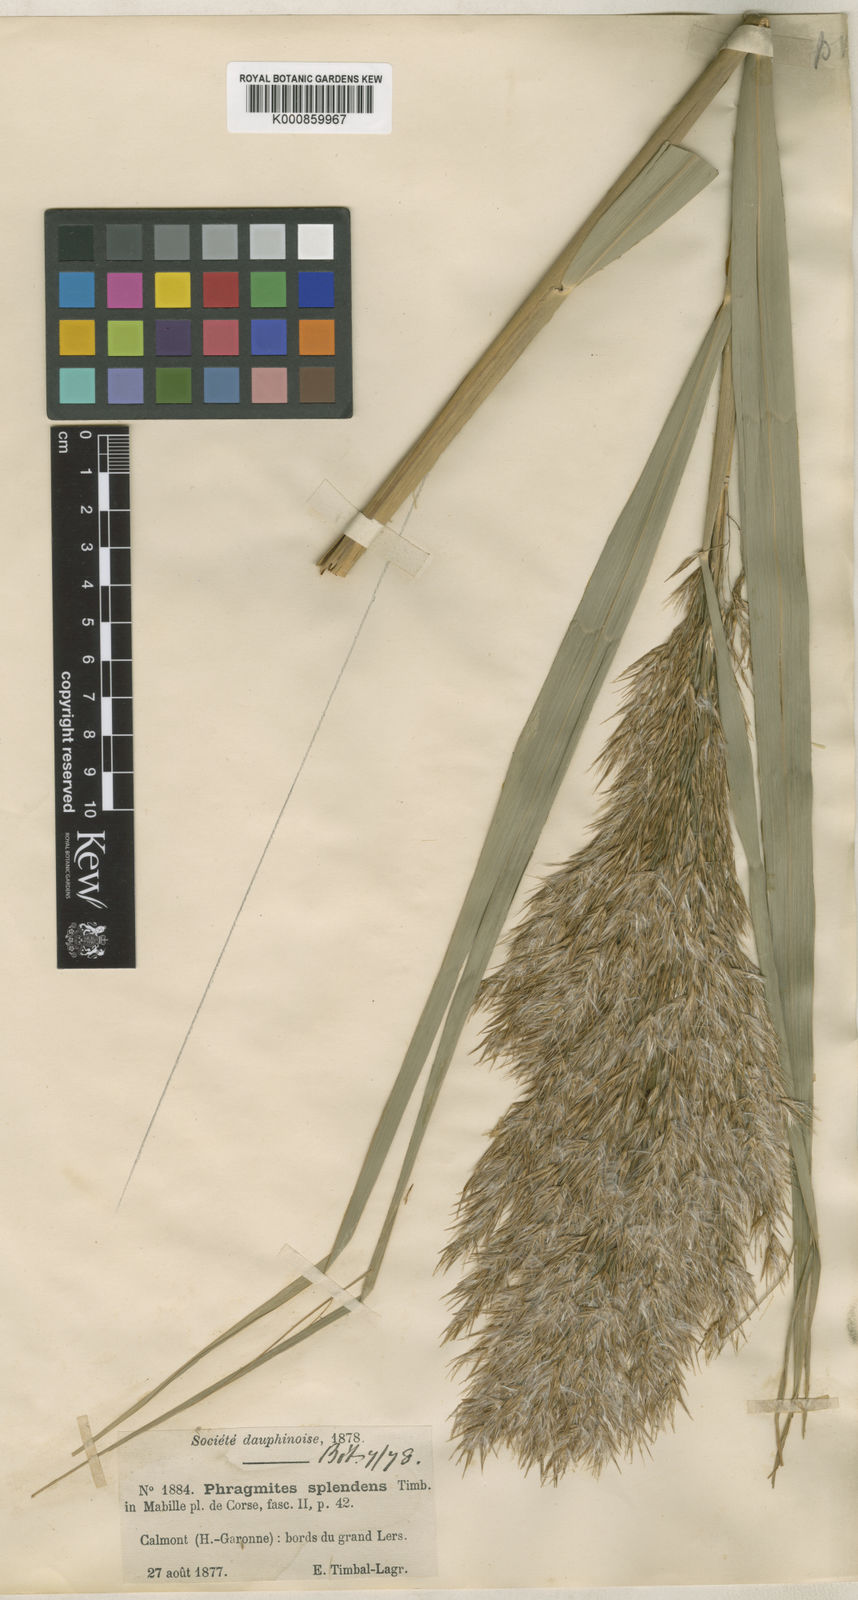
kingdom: Plantae
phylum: Tracheophyta
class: Liliopsida
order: Poales
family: Poaceae
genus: Phragmites
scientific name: Phragmites australis
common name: Common reed
